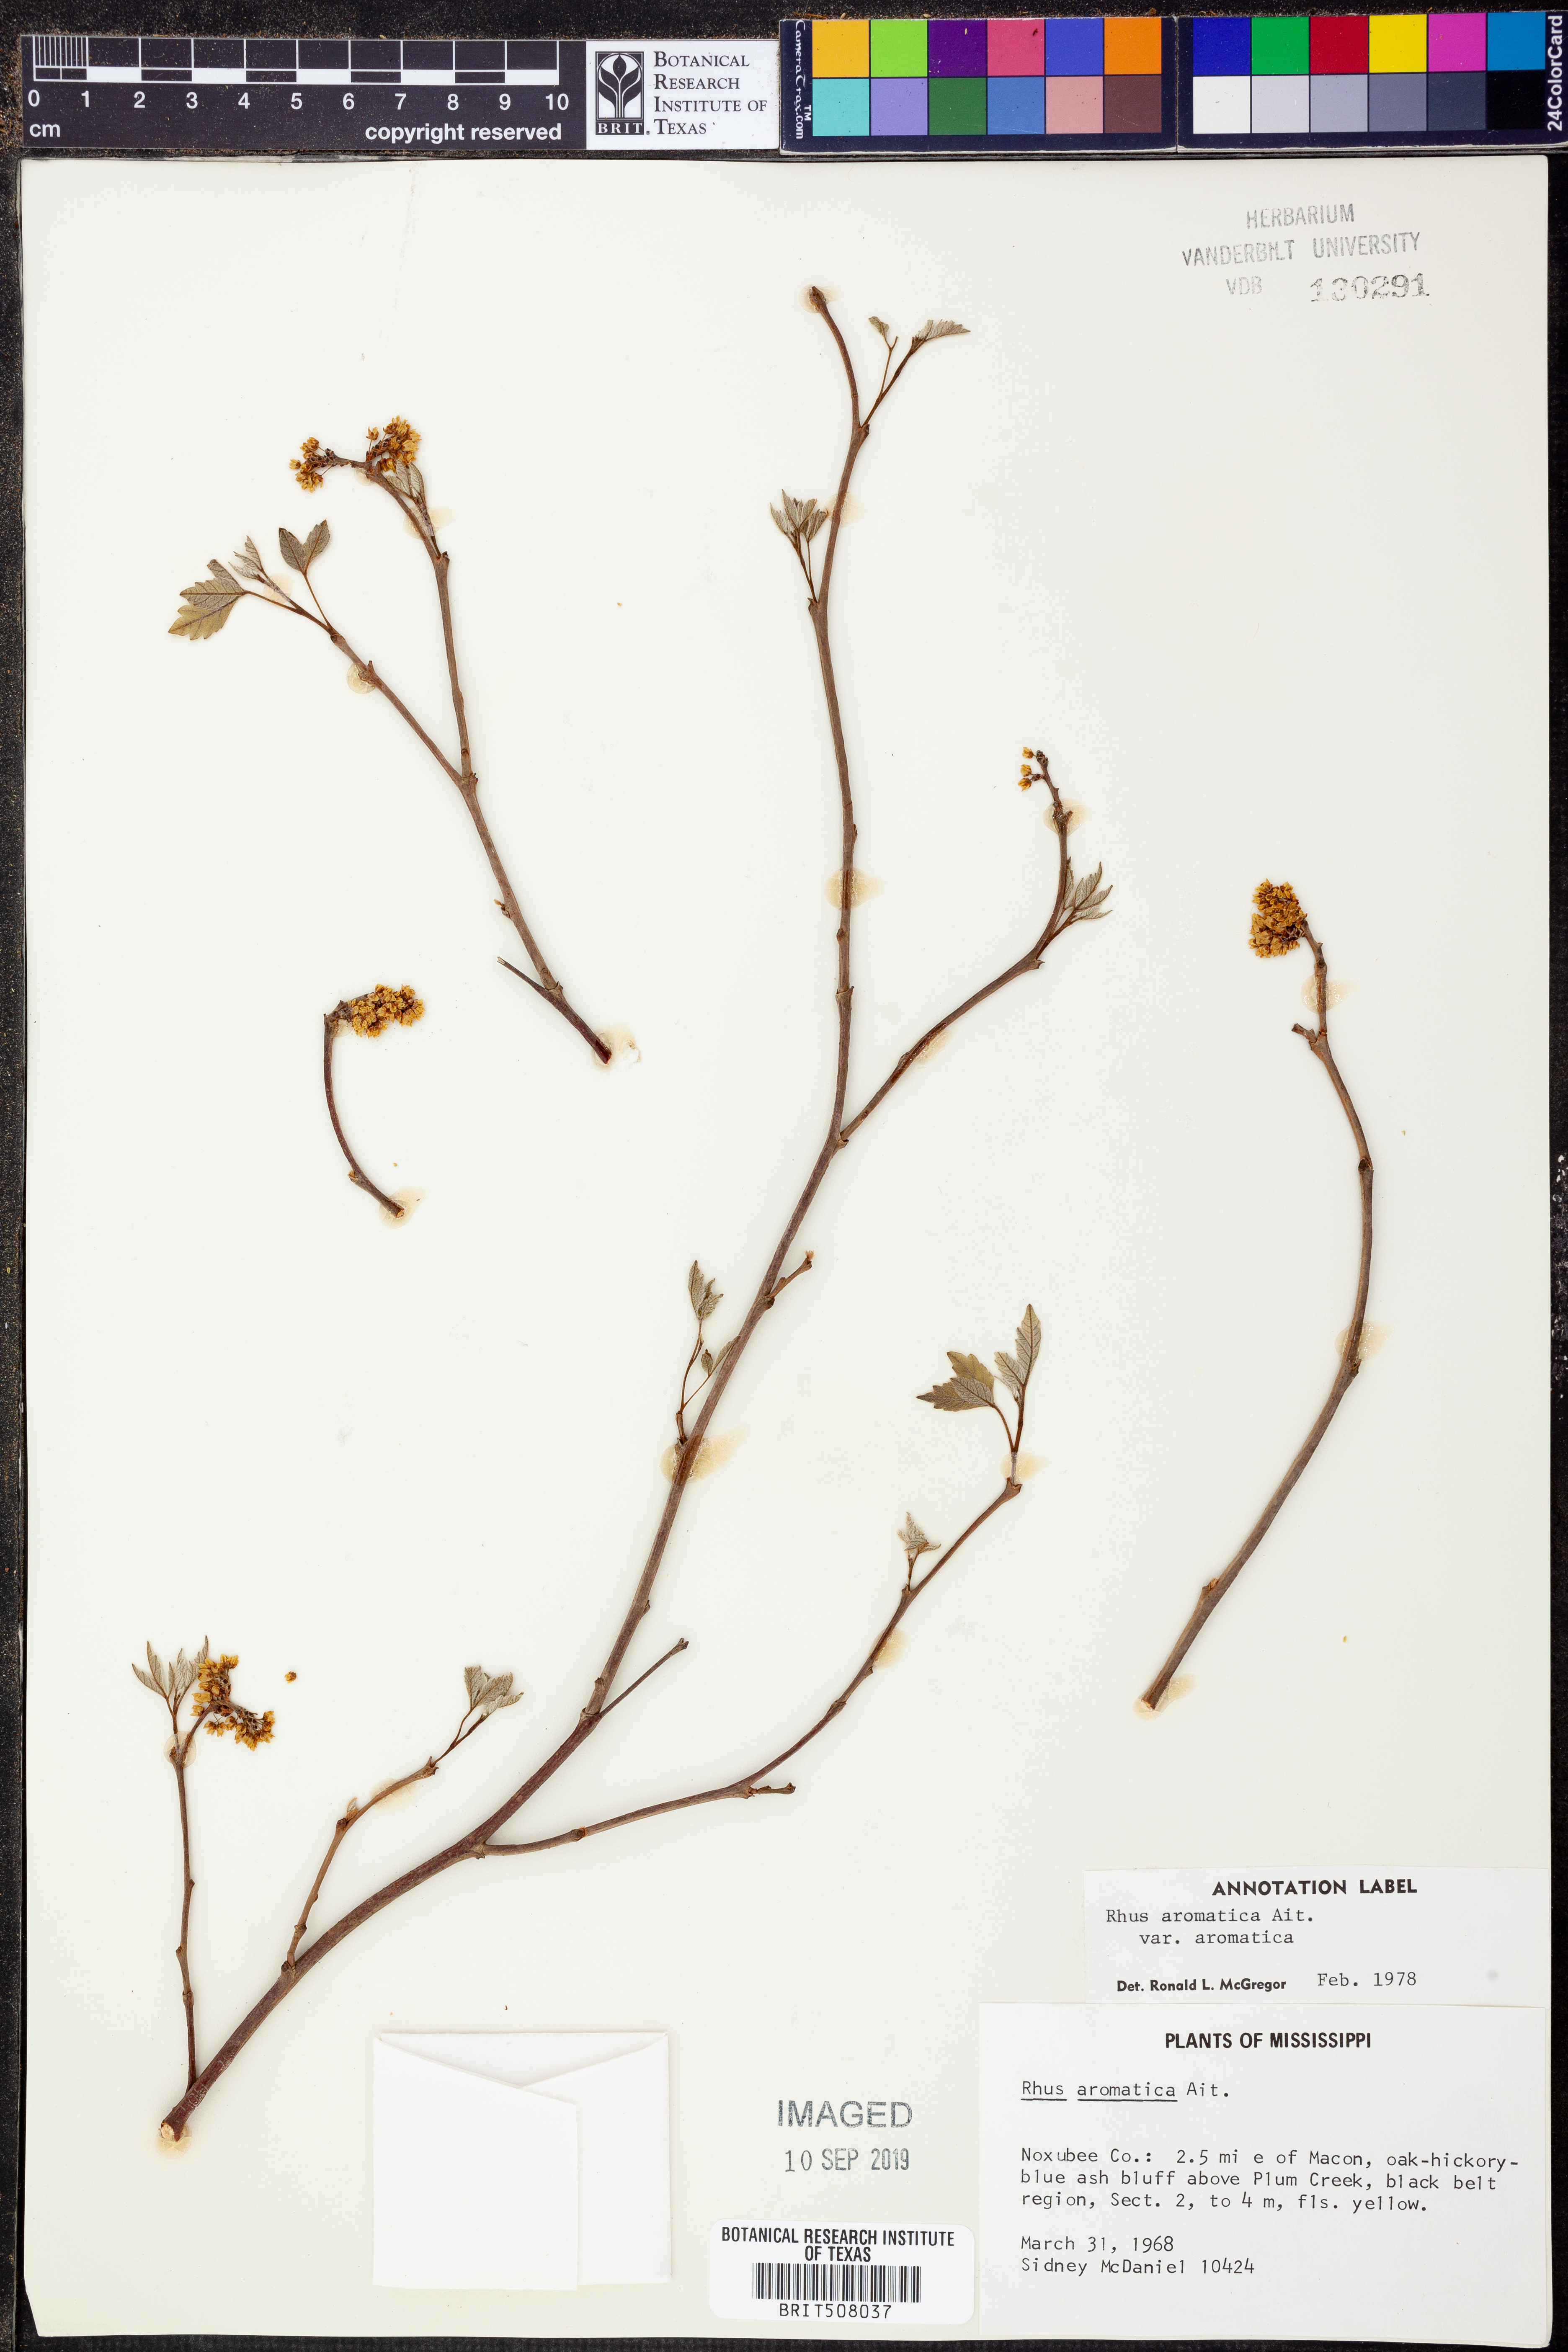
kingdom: Plantae
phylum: Tracheophyta
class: Magnoliopsida
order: Sapindales
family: Anacardiaceae
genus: Rhus
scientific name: Rhus aromatica
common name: Aromatic sumac
